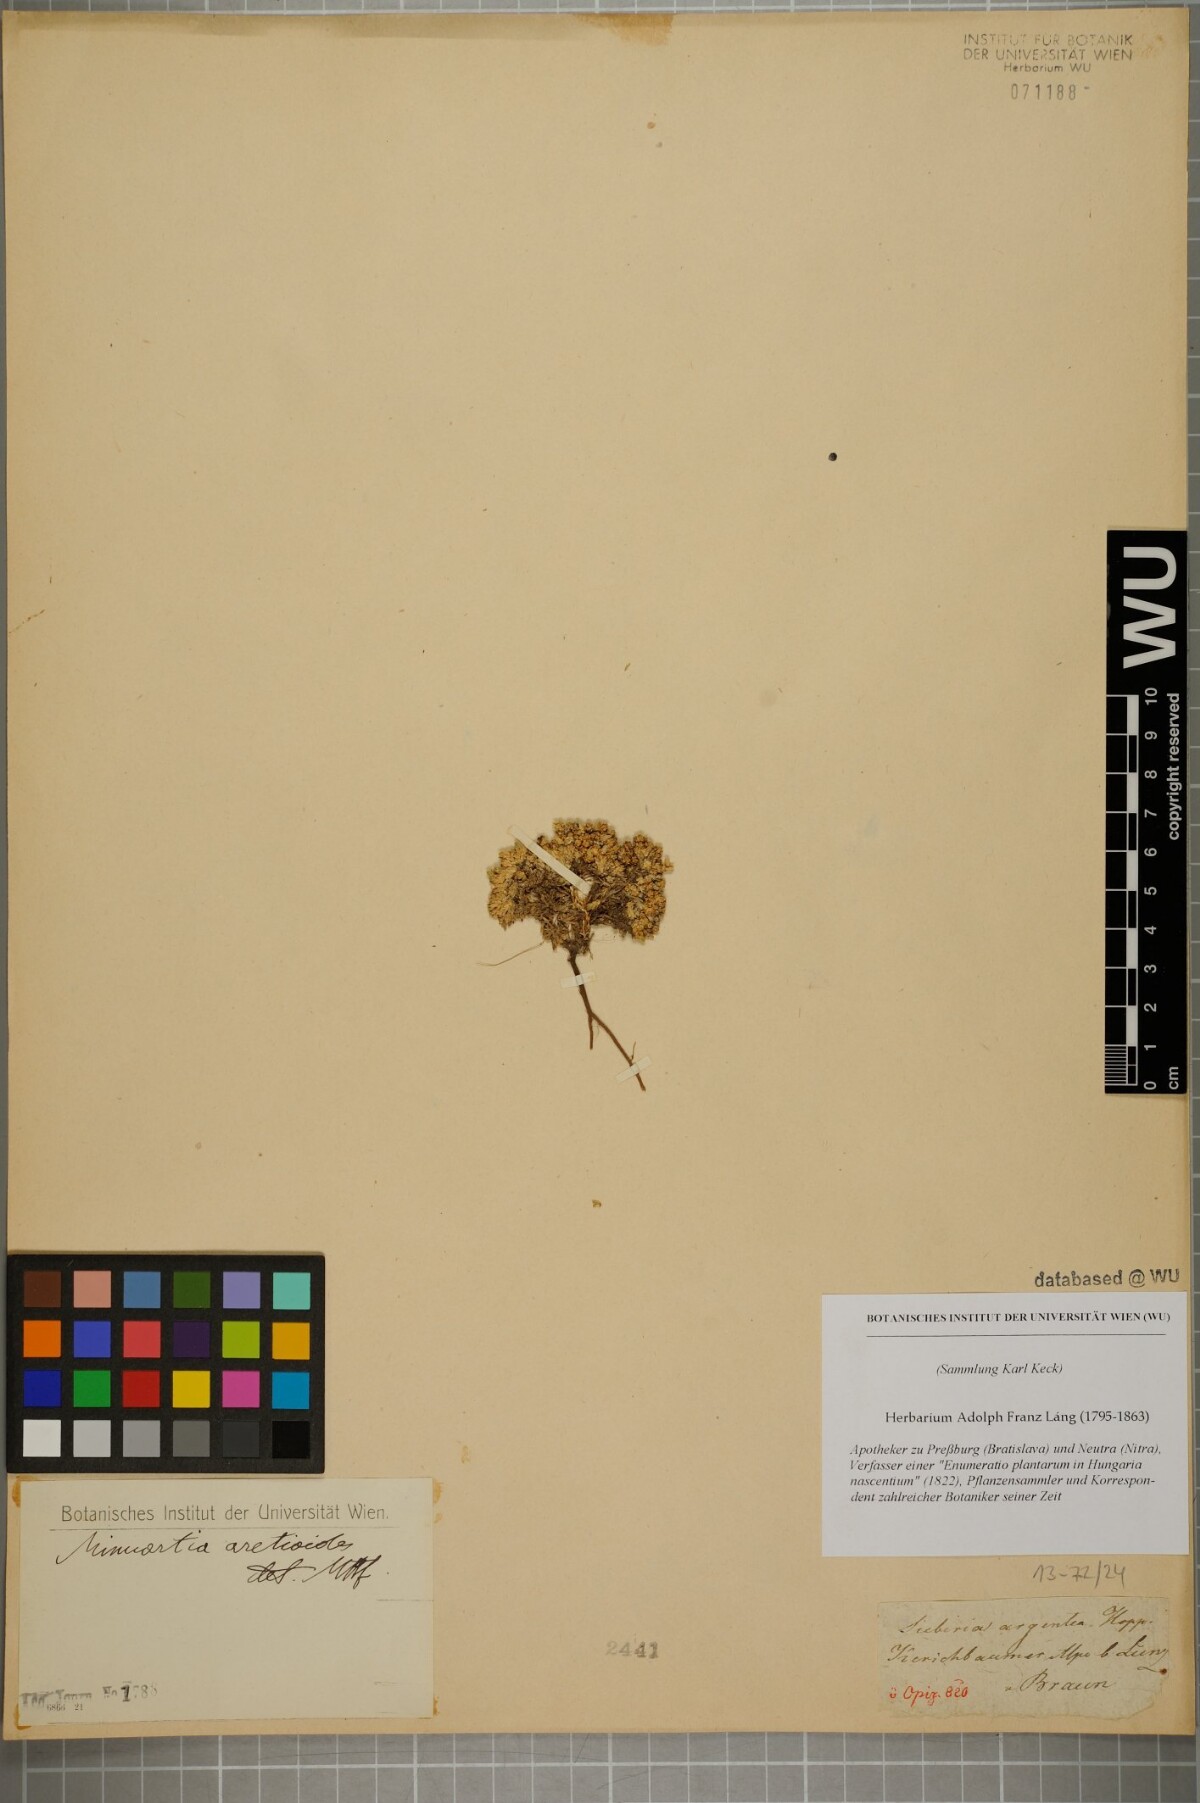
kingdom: Plantae
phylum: Tracheophyta
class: Magnoliopsida
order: Caryophyllales
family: Caryophyllaceae
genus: Facchinia
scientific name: Facchinia cherlerioides
